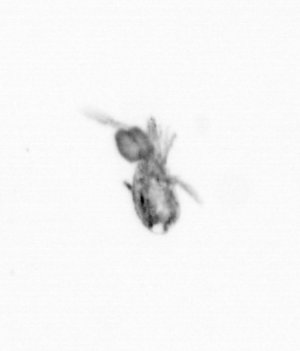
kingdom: Animalia
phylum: Arthropoda
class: Copepoda
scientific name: Copepoda
